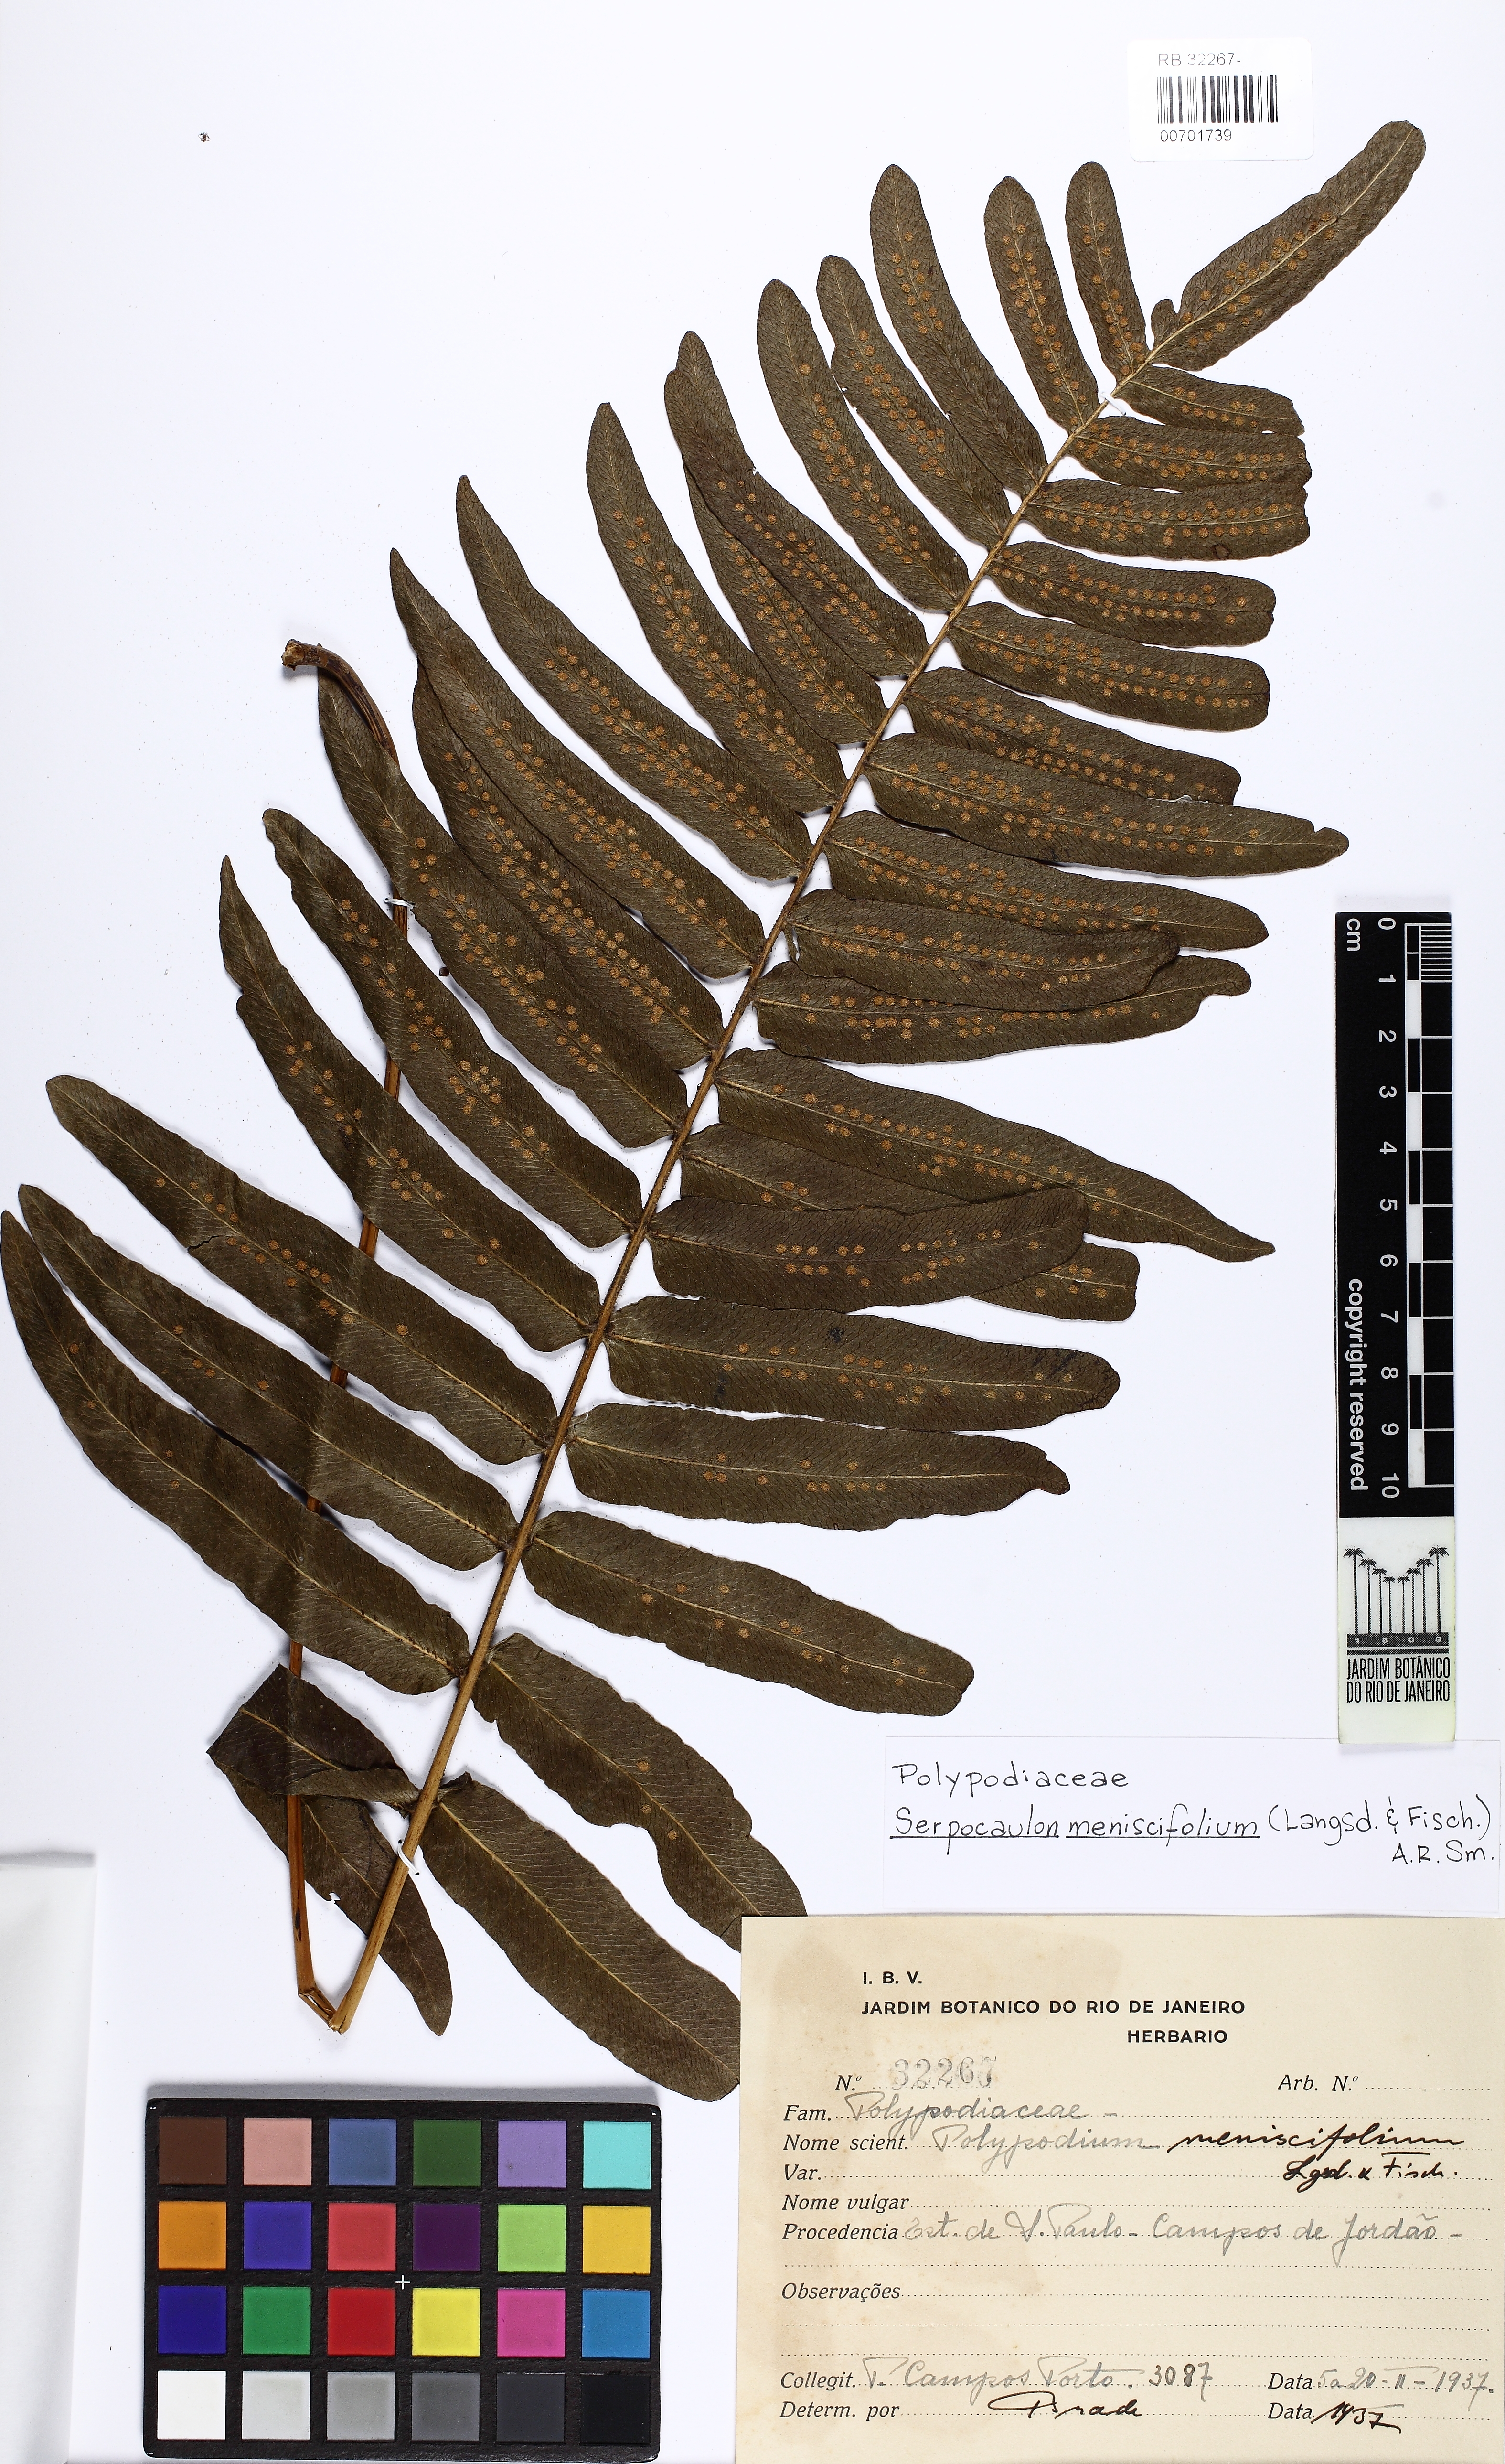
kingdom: Plantae
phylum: Tracheophyta
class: Polypodiopsida
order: Polypodiales
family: Polypodiaceae
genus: Serpocaulon
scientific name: Serpocaulon menisciifolium
